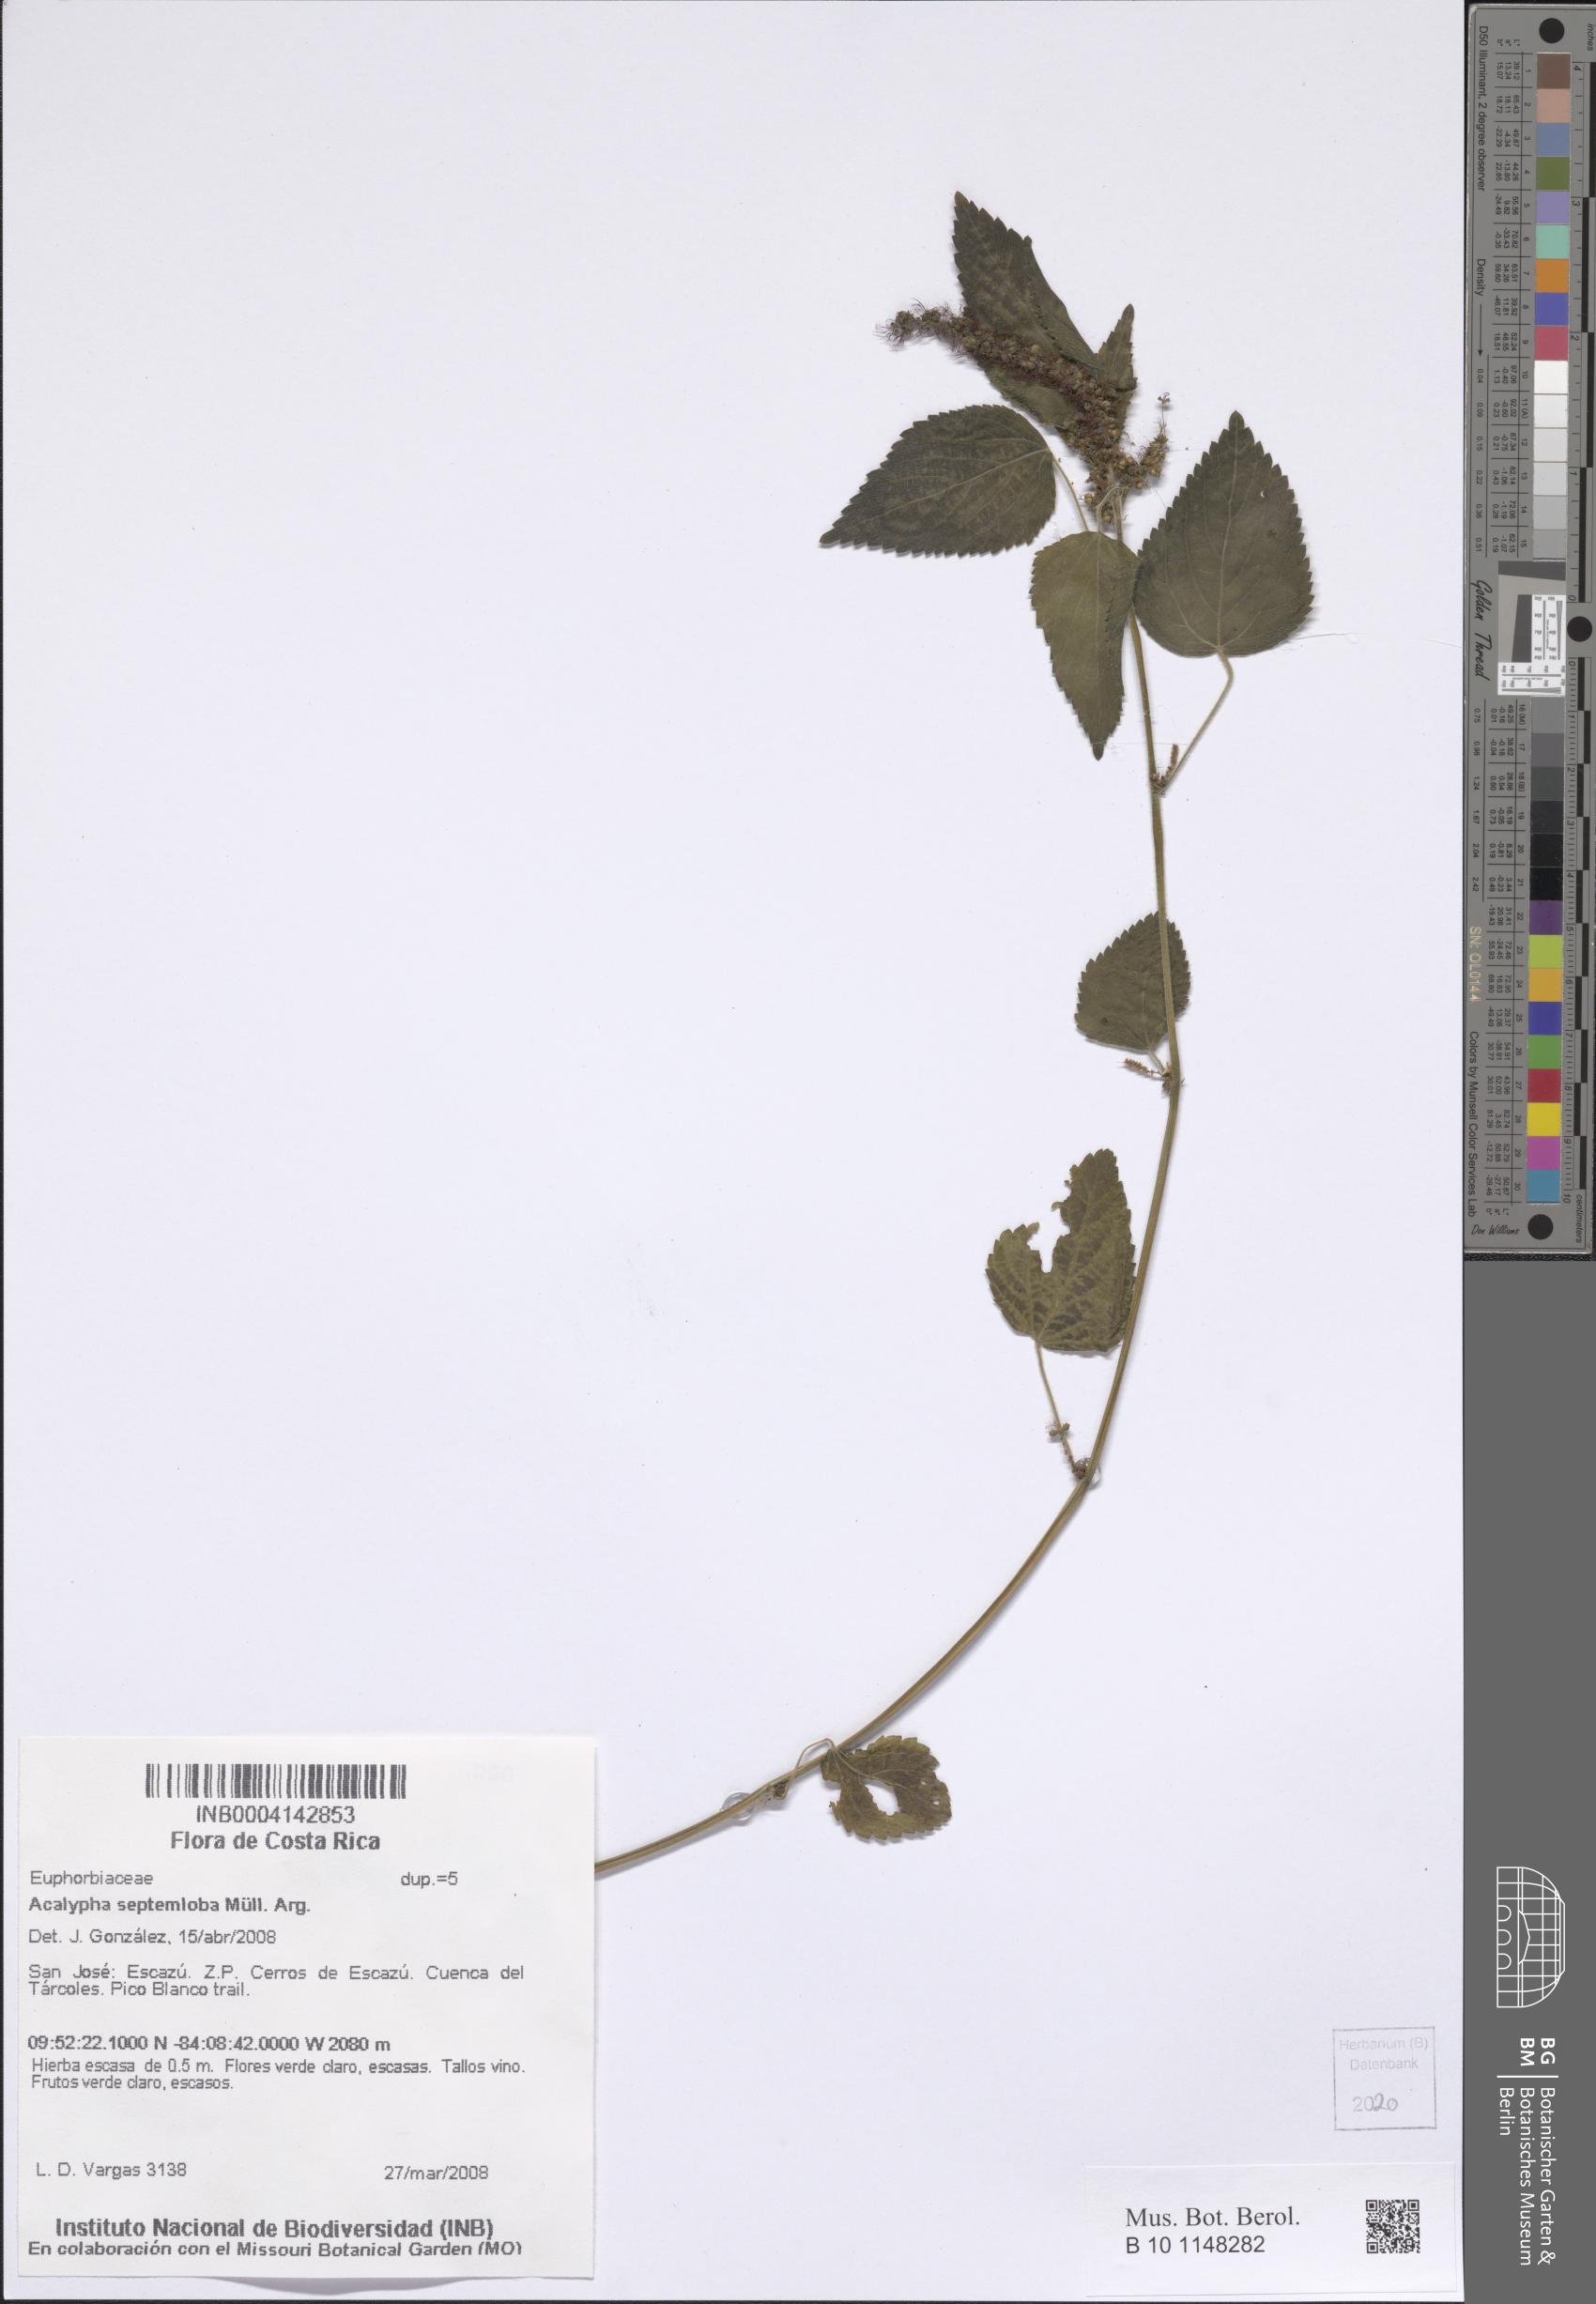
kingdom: Plantae
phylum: Tracheophyta
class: Magnoliopsida
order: Malpighiales
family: Euphorbiaceae
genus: Acalypha
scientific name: Acalypha septemloba
